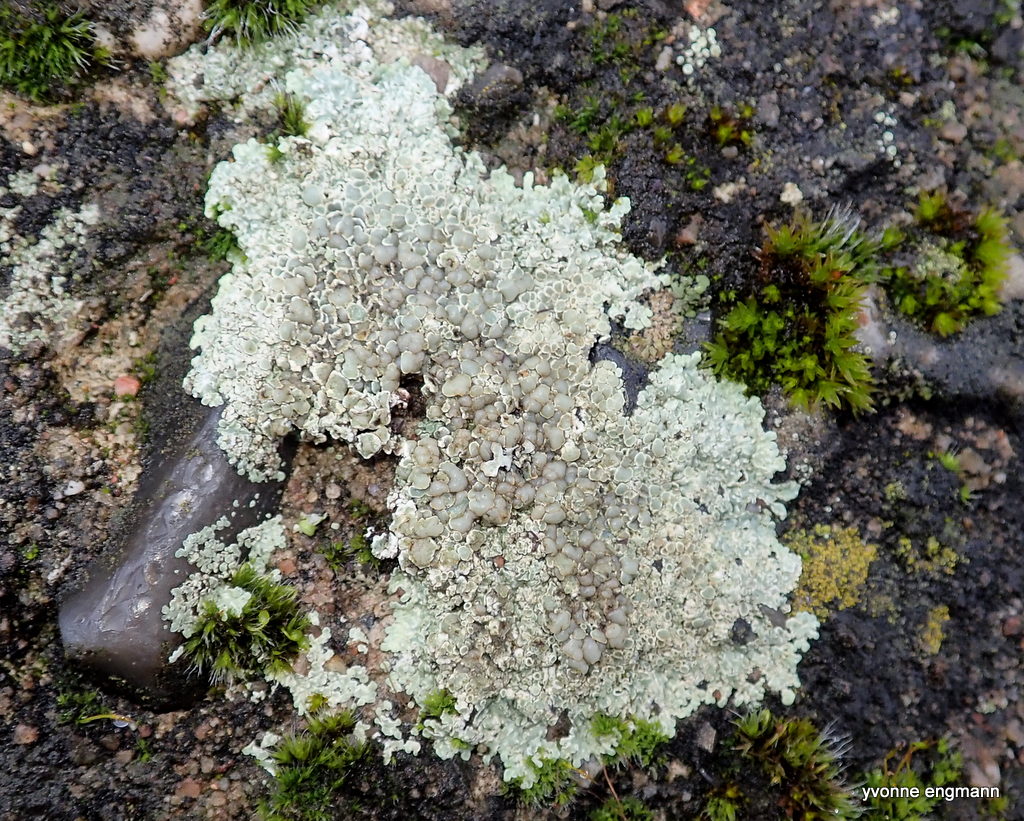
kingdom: Fungi
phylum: Ascomycota
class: Lecanoromycetes
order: Lecanorales
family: Lecanoraceae
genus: Protoparmeliopsis
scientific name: Protoparmeliopsis muralis
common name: randfliget kantskivelav
